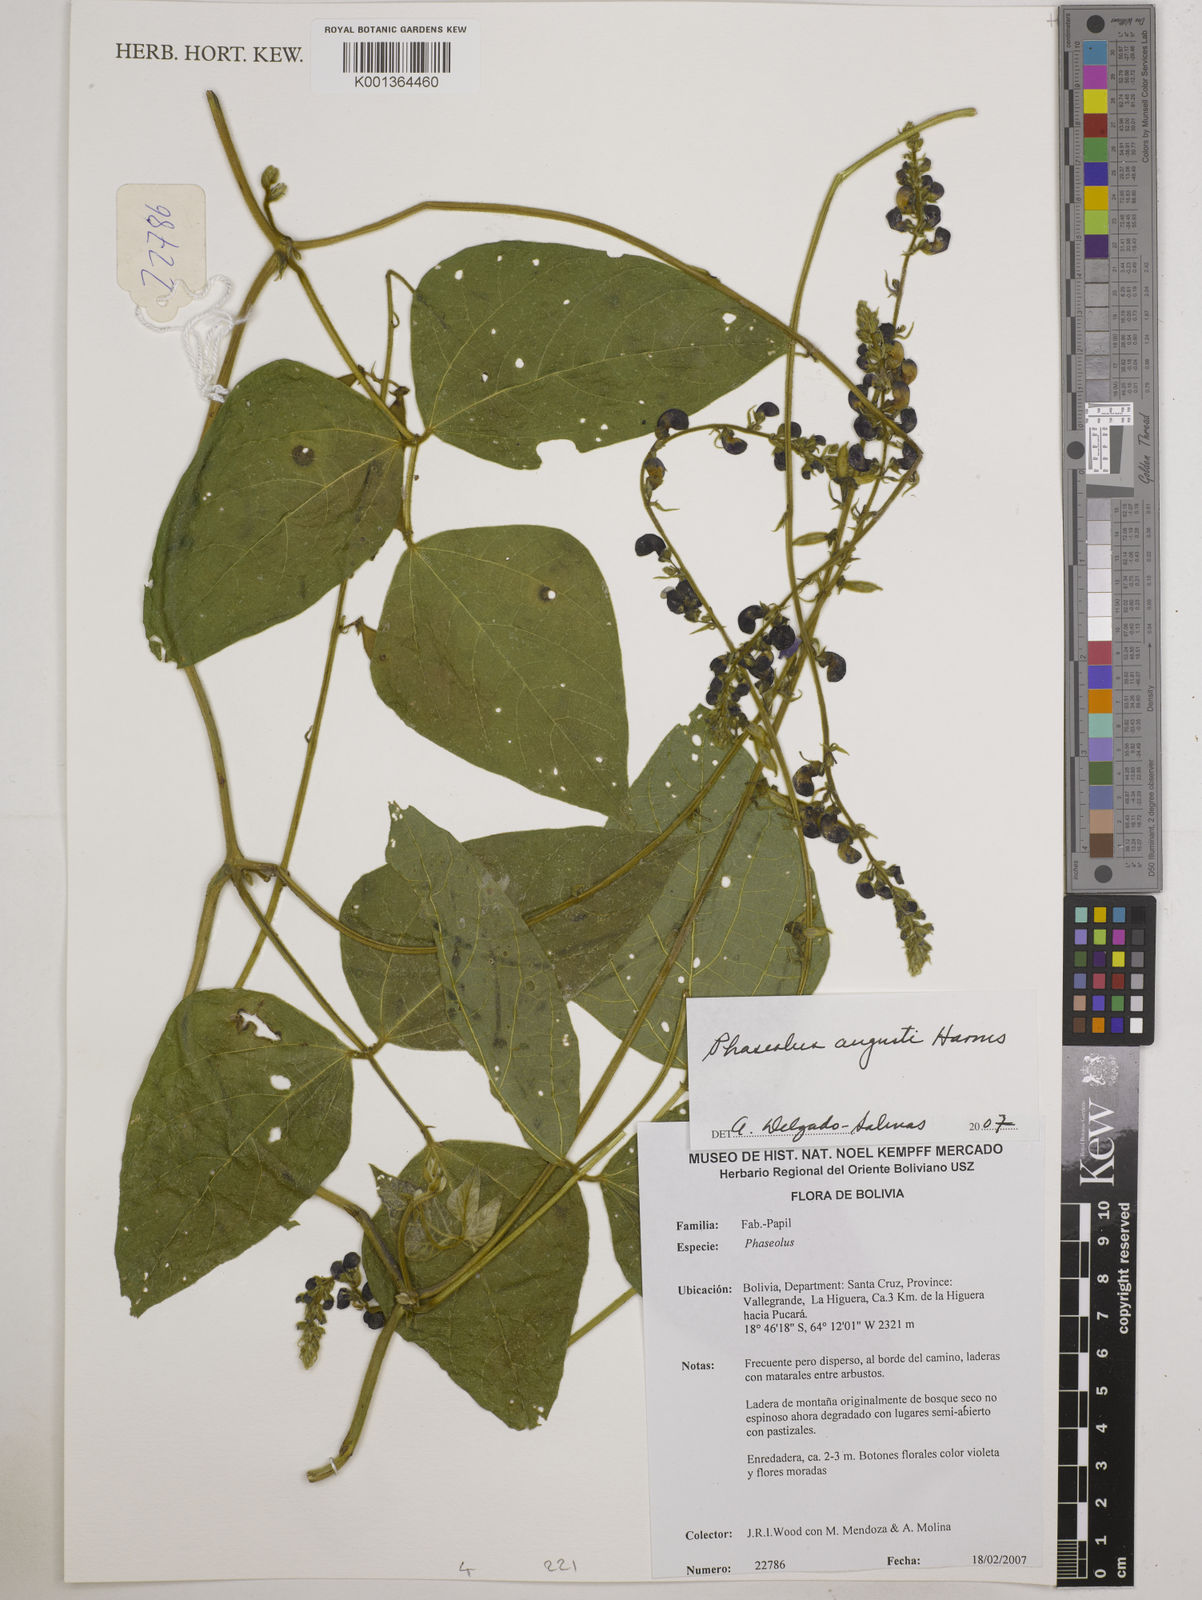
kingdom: Plantae
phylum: Tracheophyta
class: Magnoliopsida
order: Fabales
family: Fabaceae
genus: Phaseolus
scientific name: Phaseolus augusti
